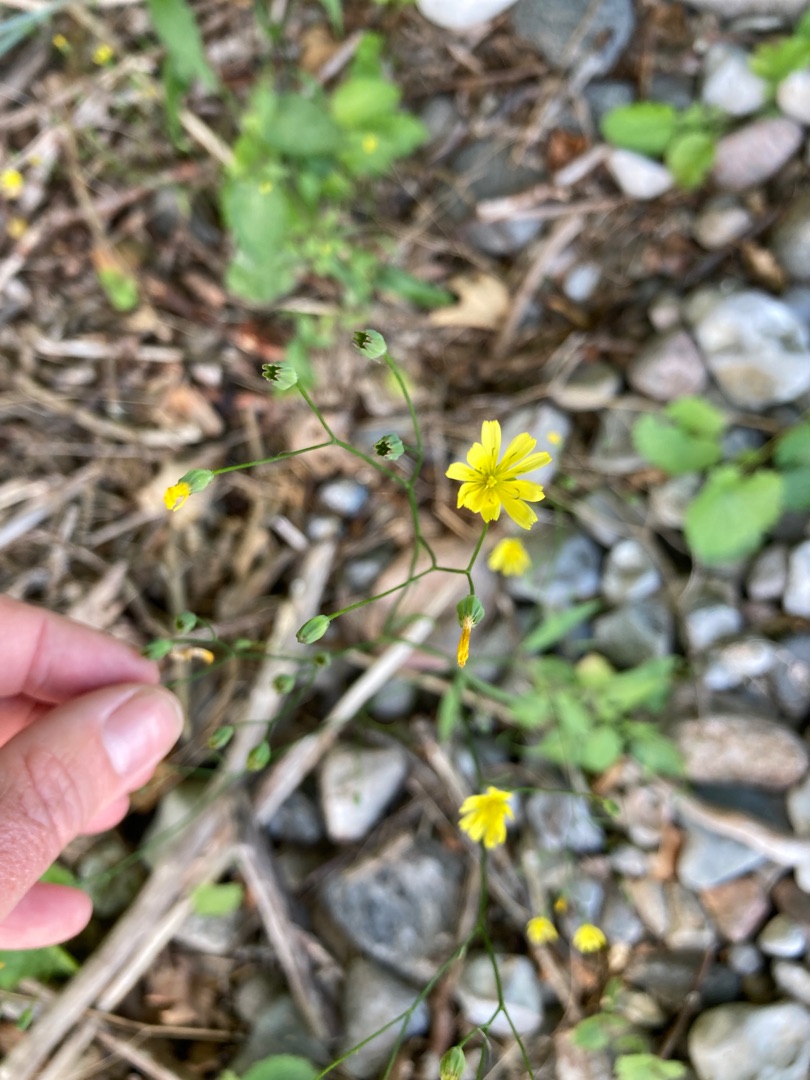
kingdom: Plantae
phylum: Tracheophyta
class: Magnoliopsida
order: Asterales
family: Asteraceae
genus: Lapsana
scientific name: Lapsana communis
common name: Haremad
